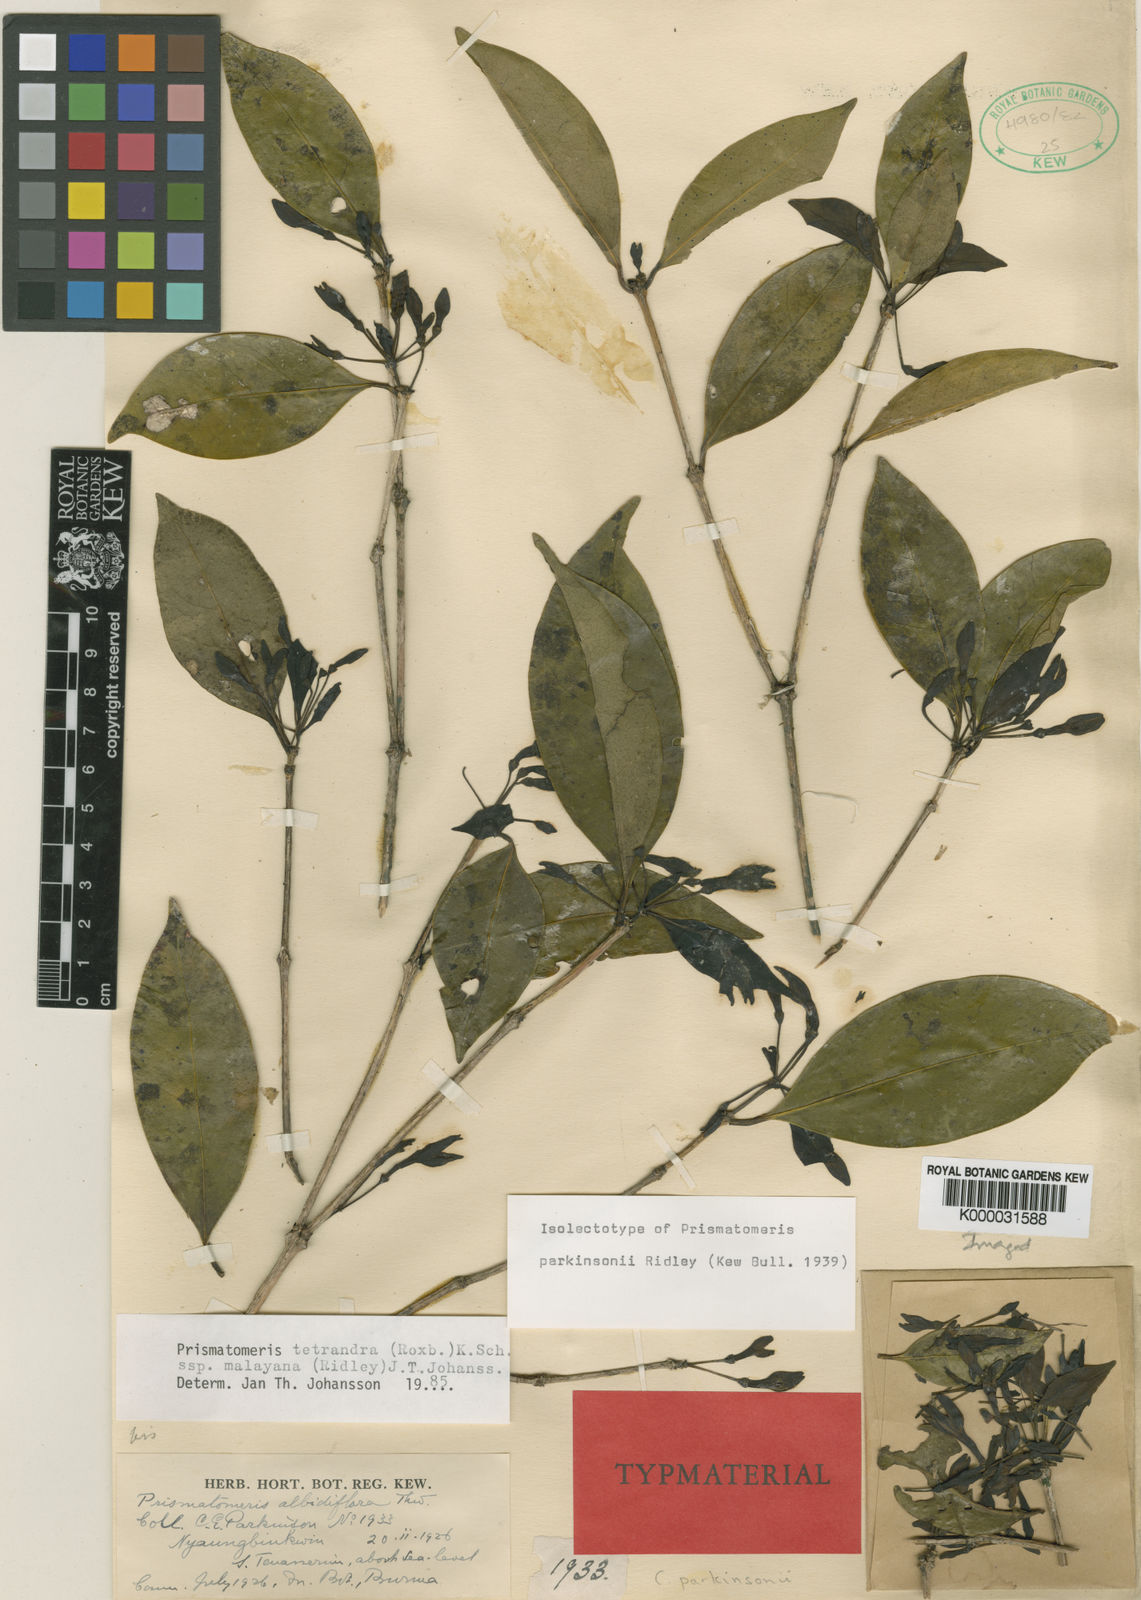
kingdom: Plantae
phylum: Tracheophyta
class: Magnoliopsida
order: Gentianales
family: Rubiaceae
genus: Prismatomeris
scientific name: Prismatomeris tetrandra
